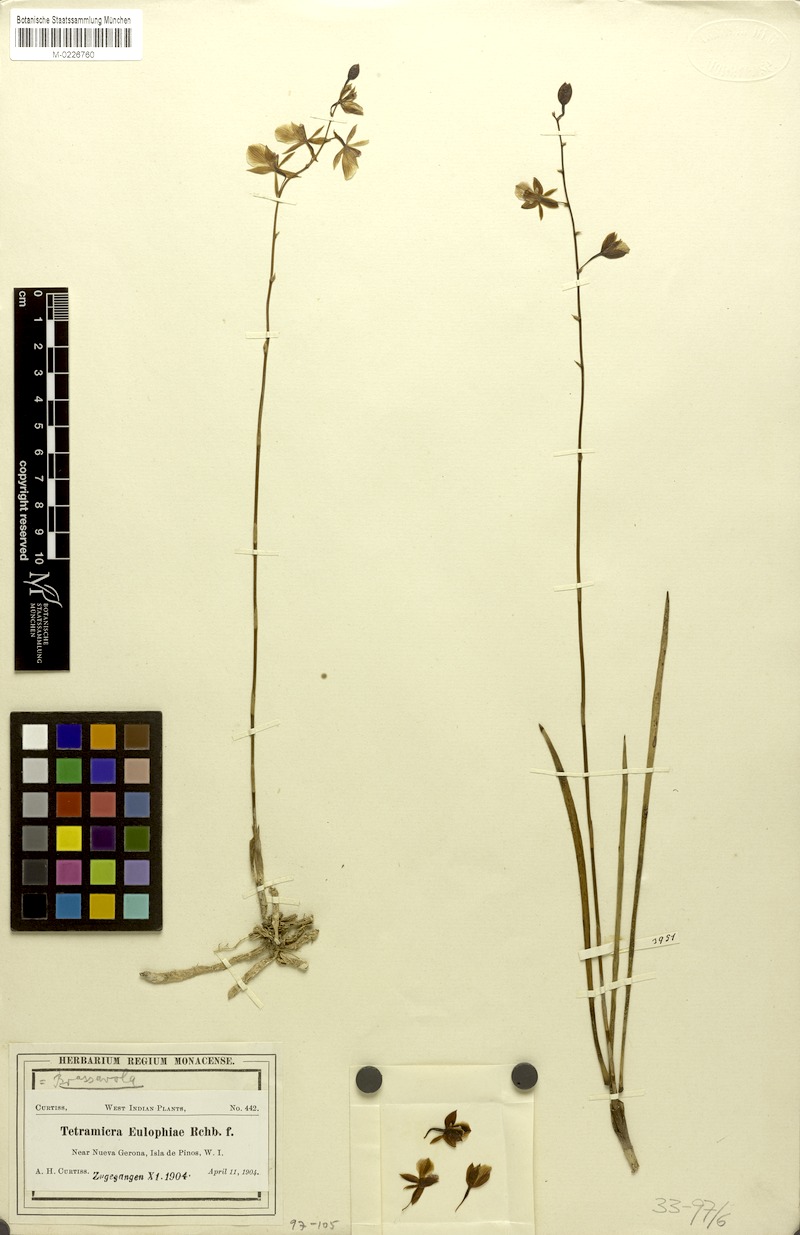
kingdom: Plantae
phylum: Tracheophyta
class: Liliopsida
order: Asparagales
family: Orchidaceae
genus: Tetramicra
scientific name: Tetramicra tenera
